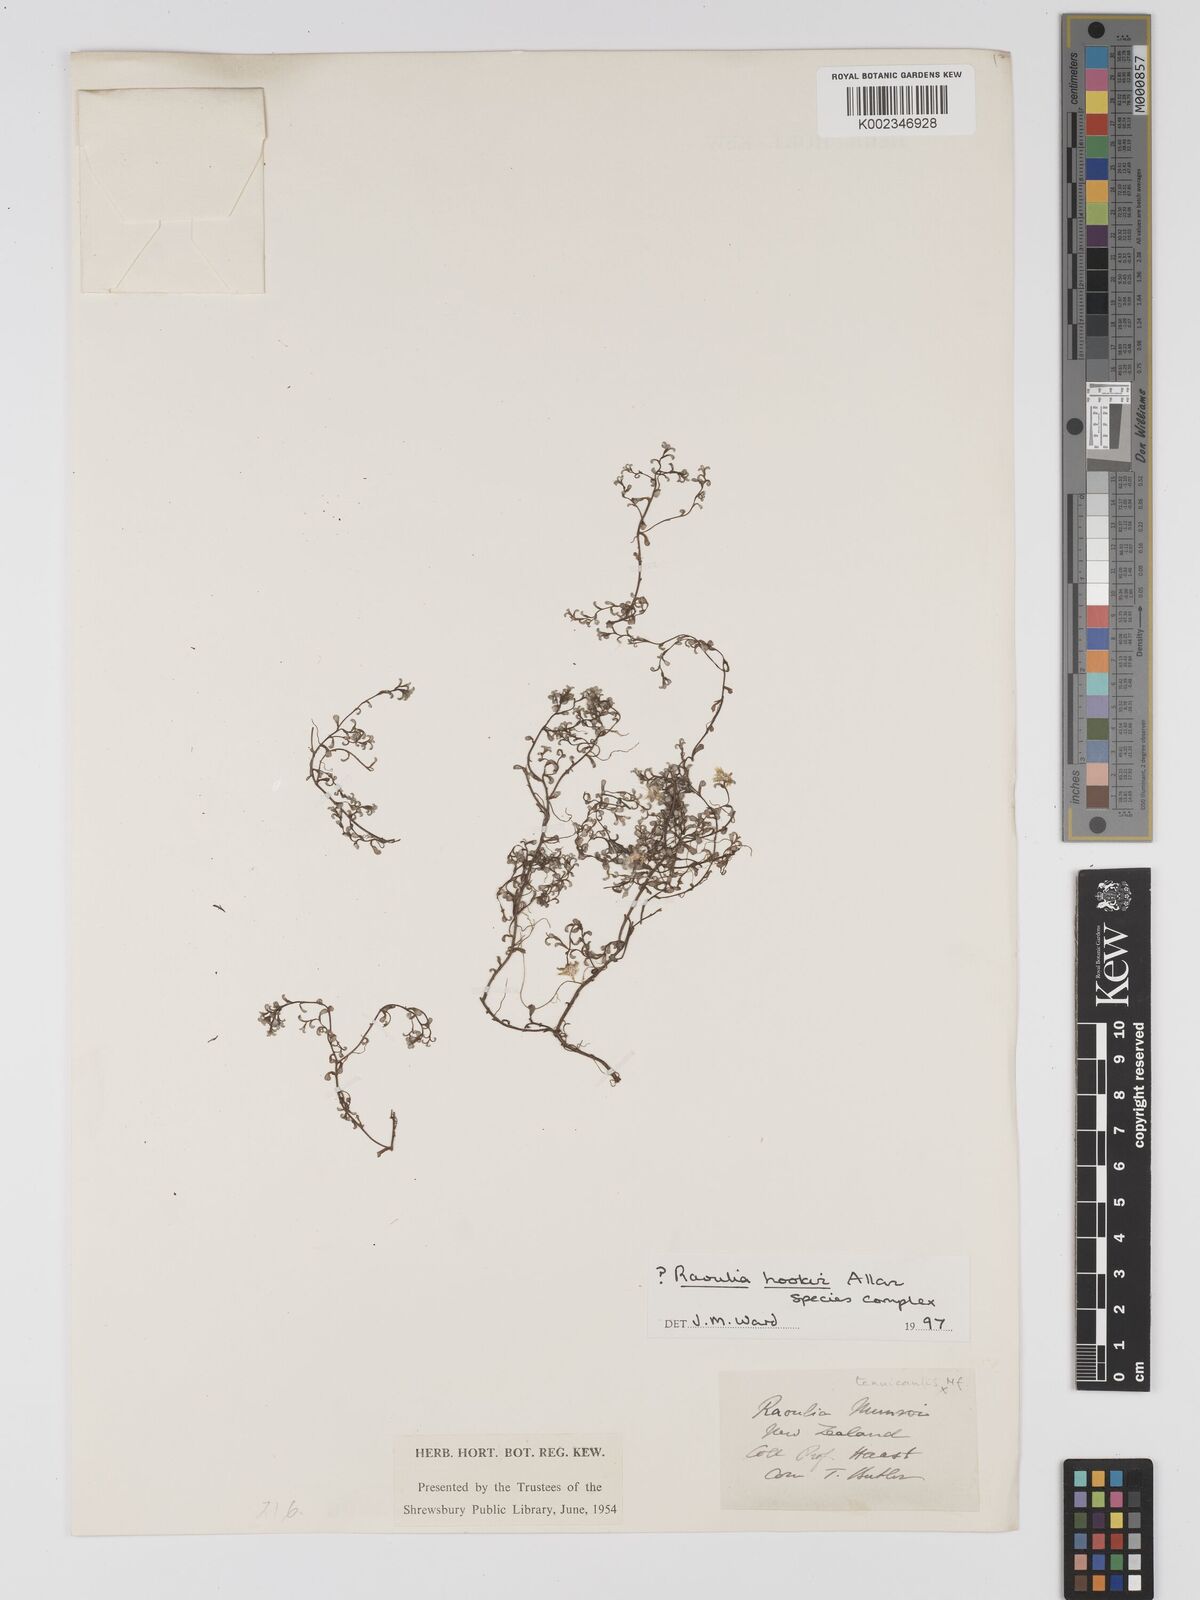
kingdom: Plantae
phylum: Tracheophyta
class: Magnoliopsida
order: Asterales
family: Asteraceae
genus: Raoulia
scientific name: Raoulia hookeri
